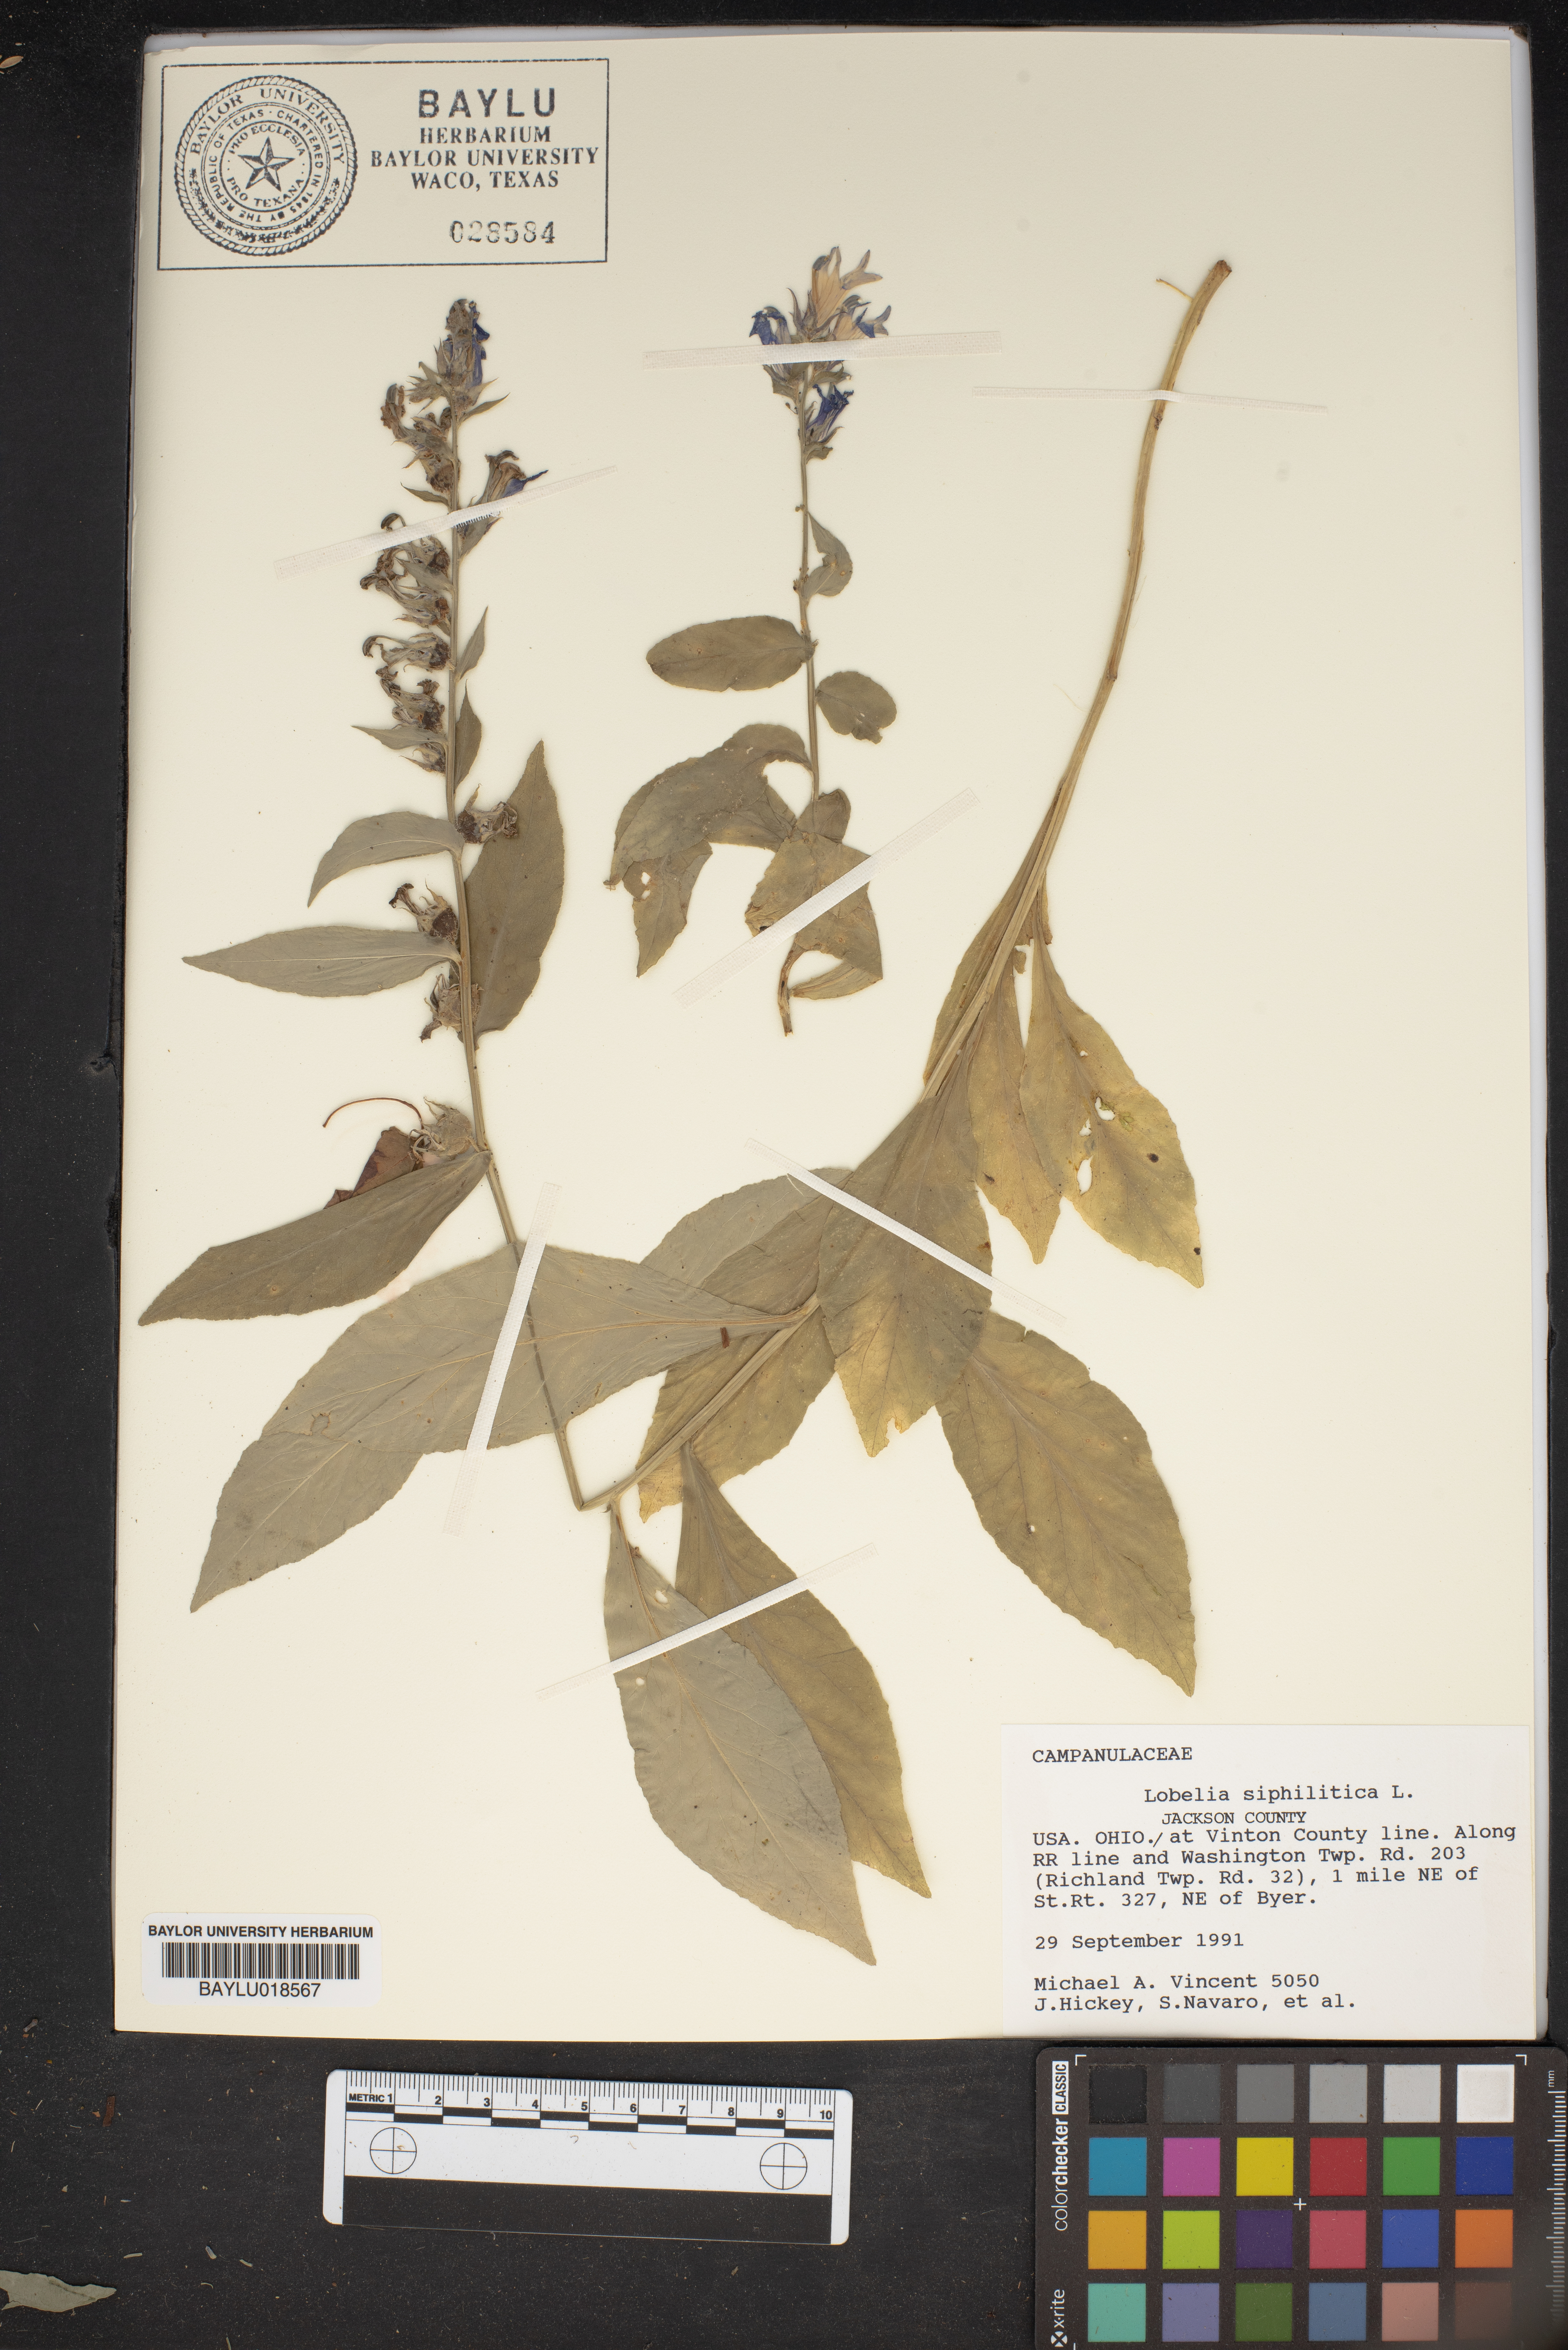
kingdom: Plantae
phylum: Tracheophyta
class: Magnoliopsida
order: Asterales
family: Campanulaceae
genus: Lobelia
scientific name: Lobelia siphilitica
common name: Great lobelia
